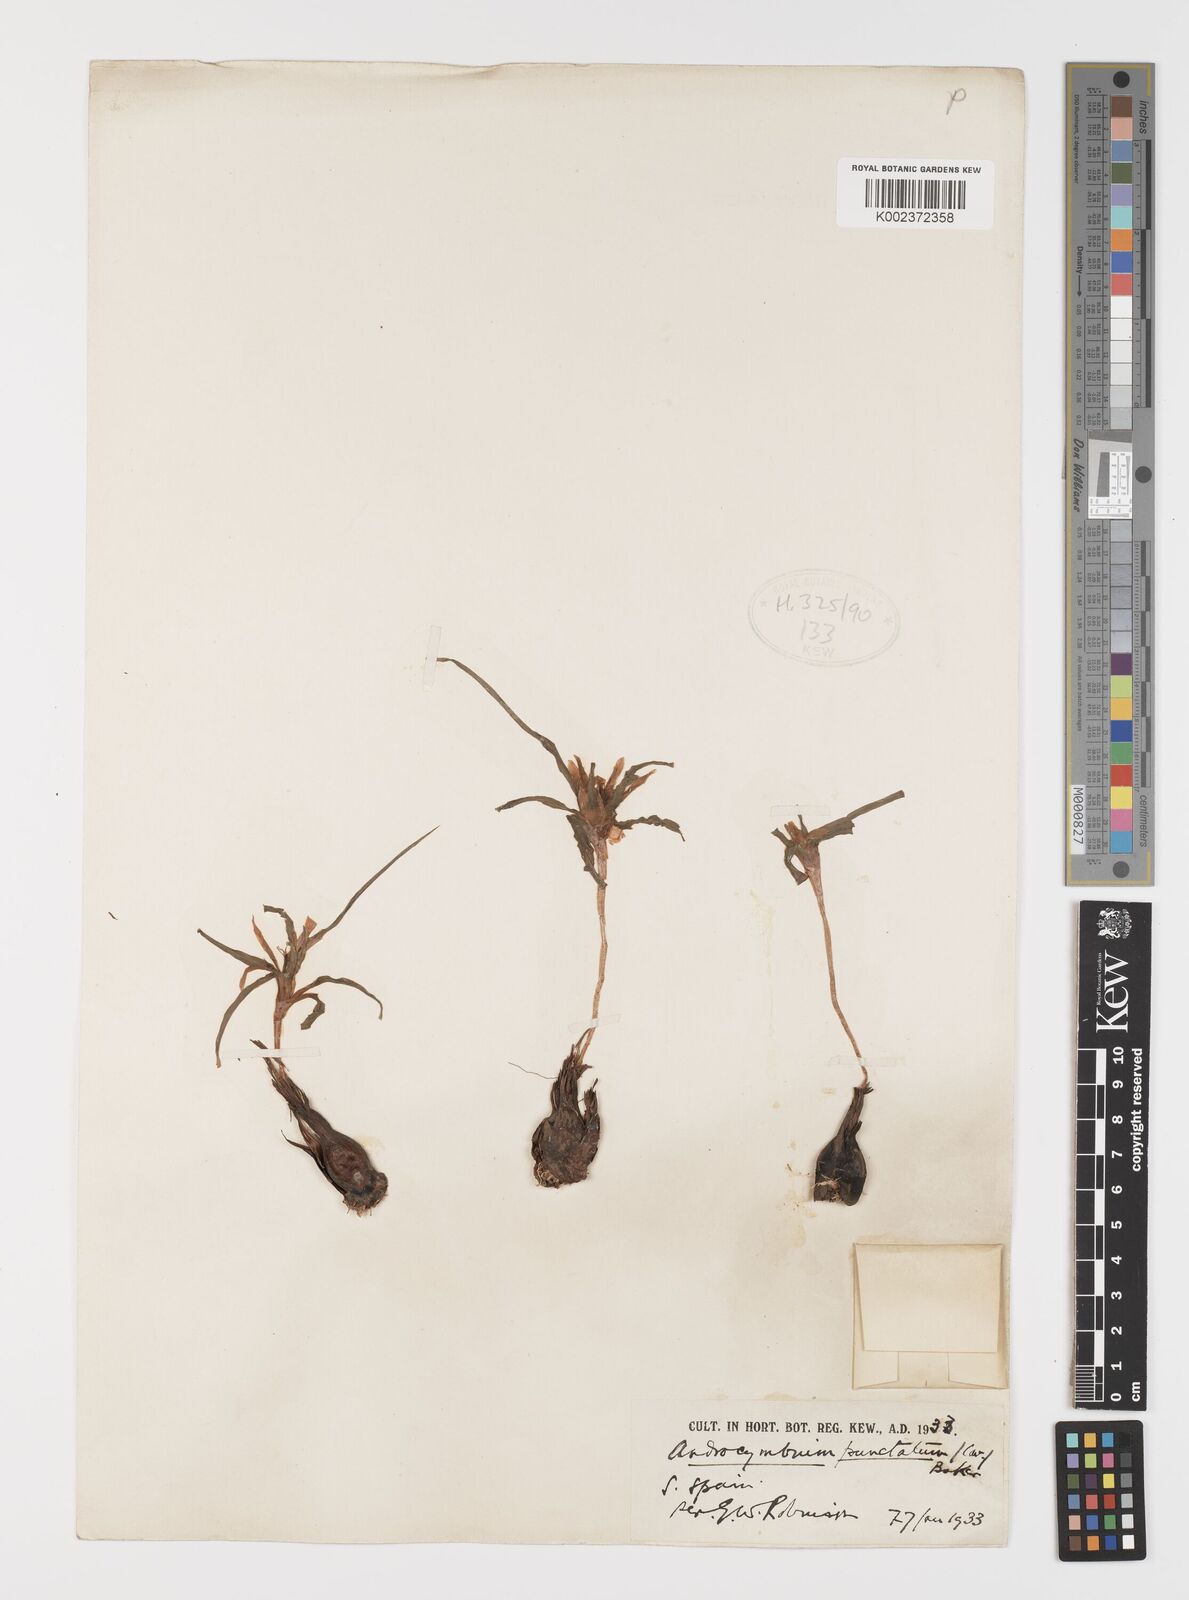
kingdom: Plantae
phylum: Tracheophyta
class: Liliopsida
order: Liliales
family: Colchicaceae
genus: Colchicum
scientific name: Colchicum capense
